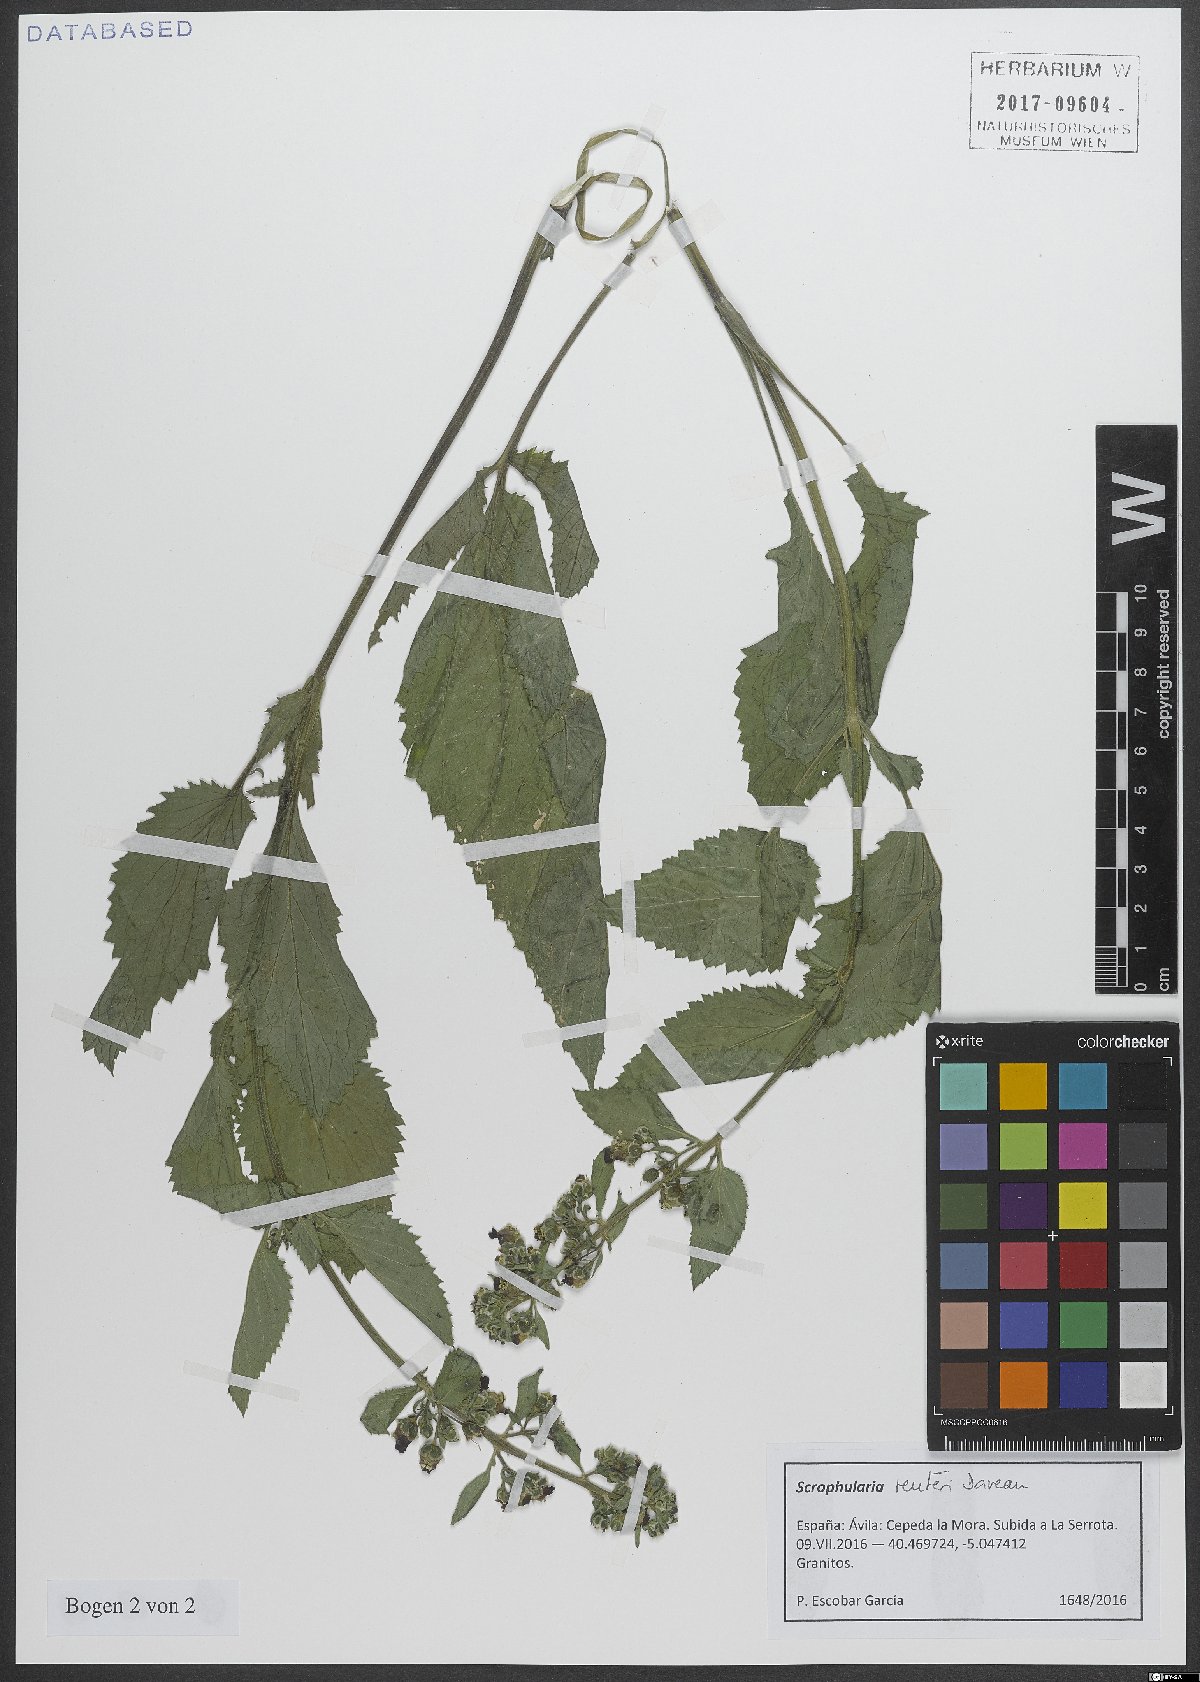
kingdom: Plantae
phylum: Tracheophyta
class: Magnoliopsida
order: Lamiales
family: Scrophulariaceae
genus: Scrophularia
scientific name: Scrophularia reuteri
